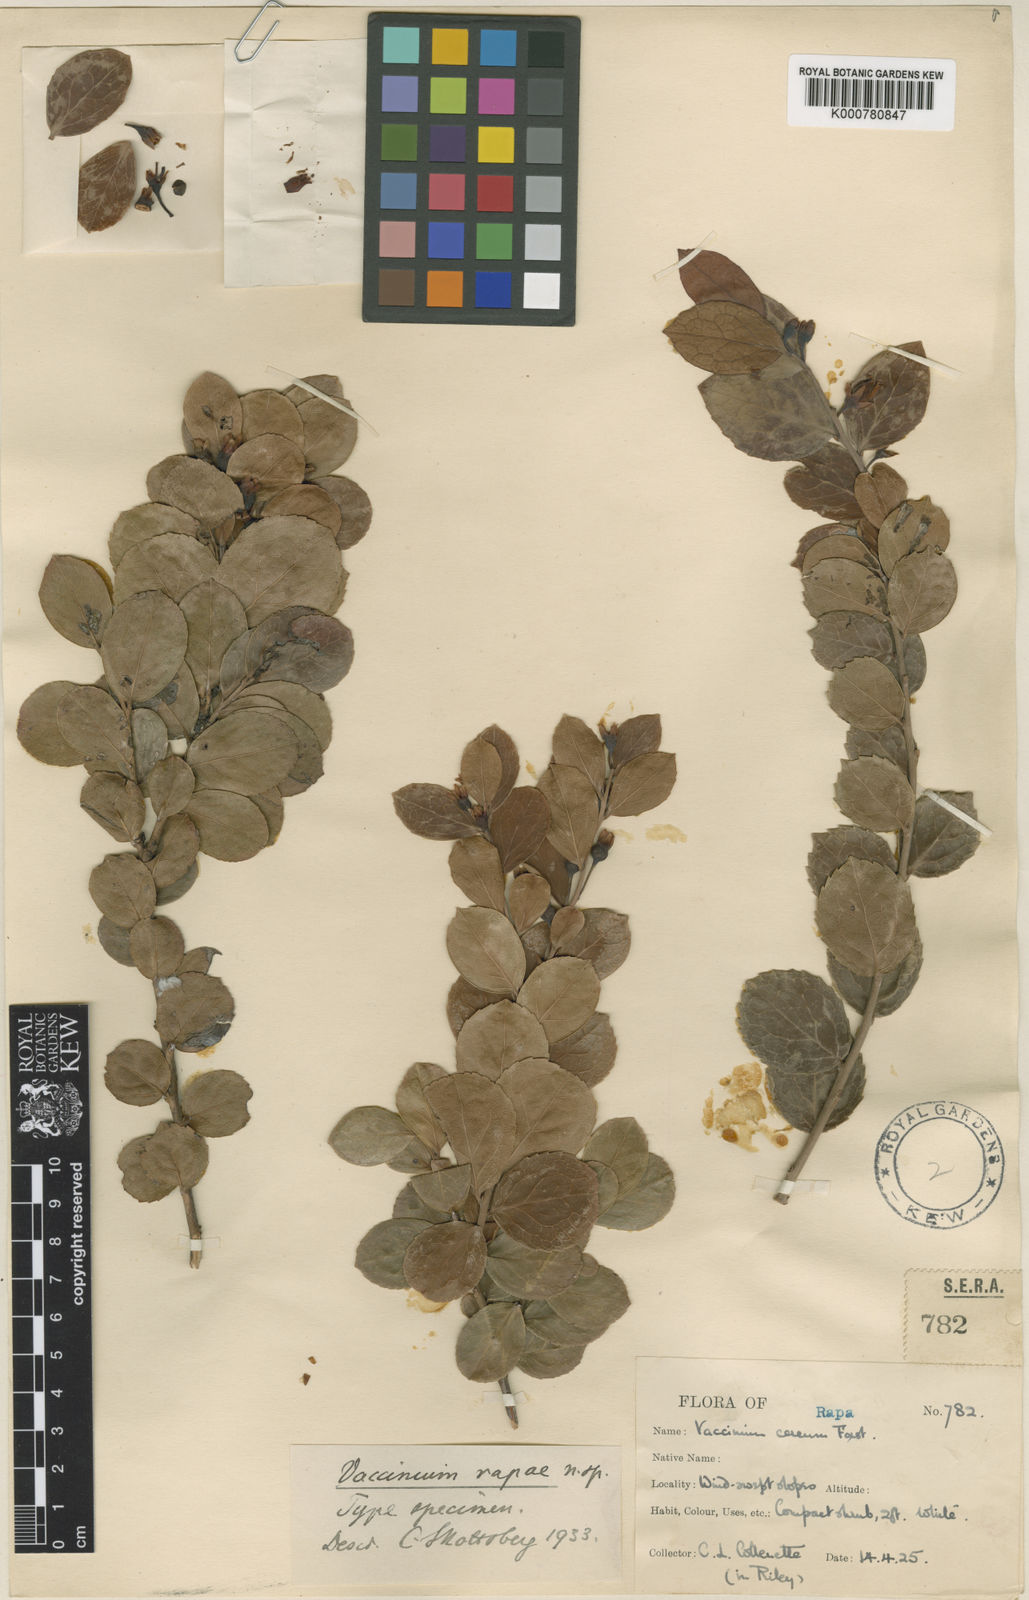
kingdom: Plantae
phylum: Tracheophyta
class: Magnoliopsida
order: Ericales
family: Ericaceae
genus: Vaccinium
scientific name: Vaccinium rapae
